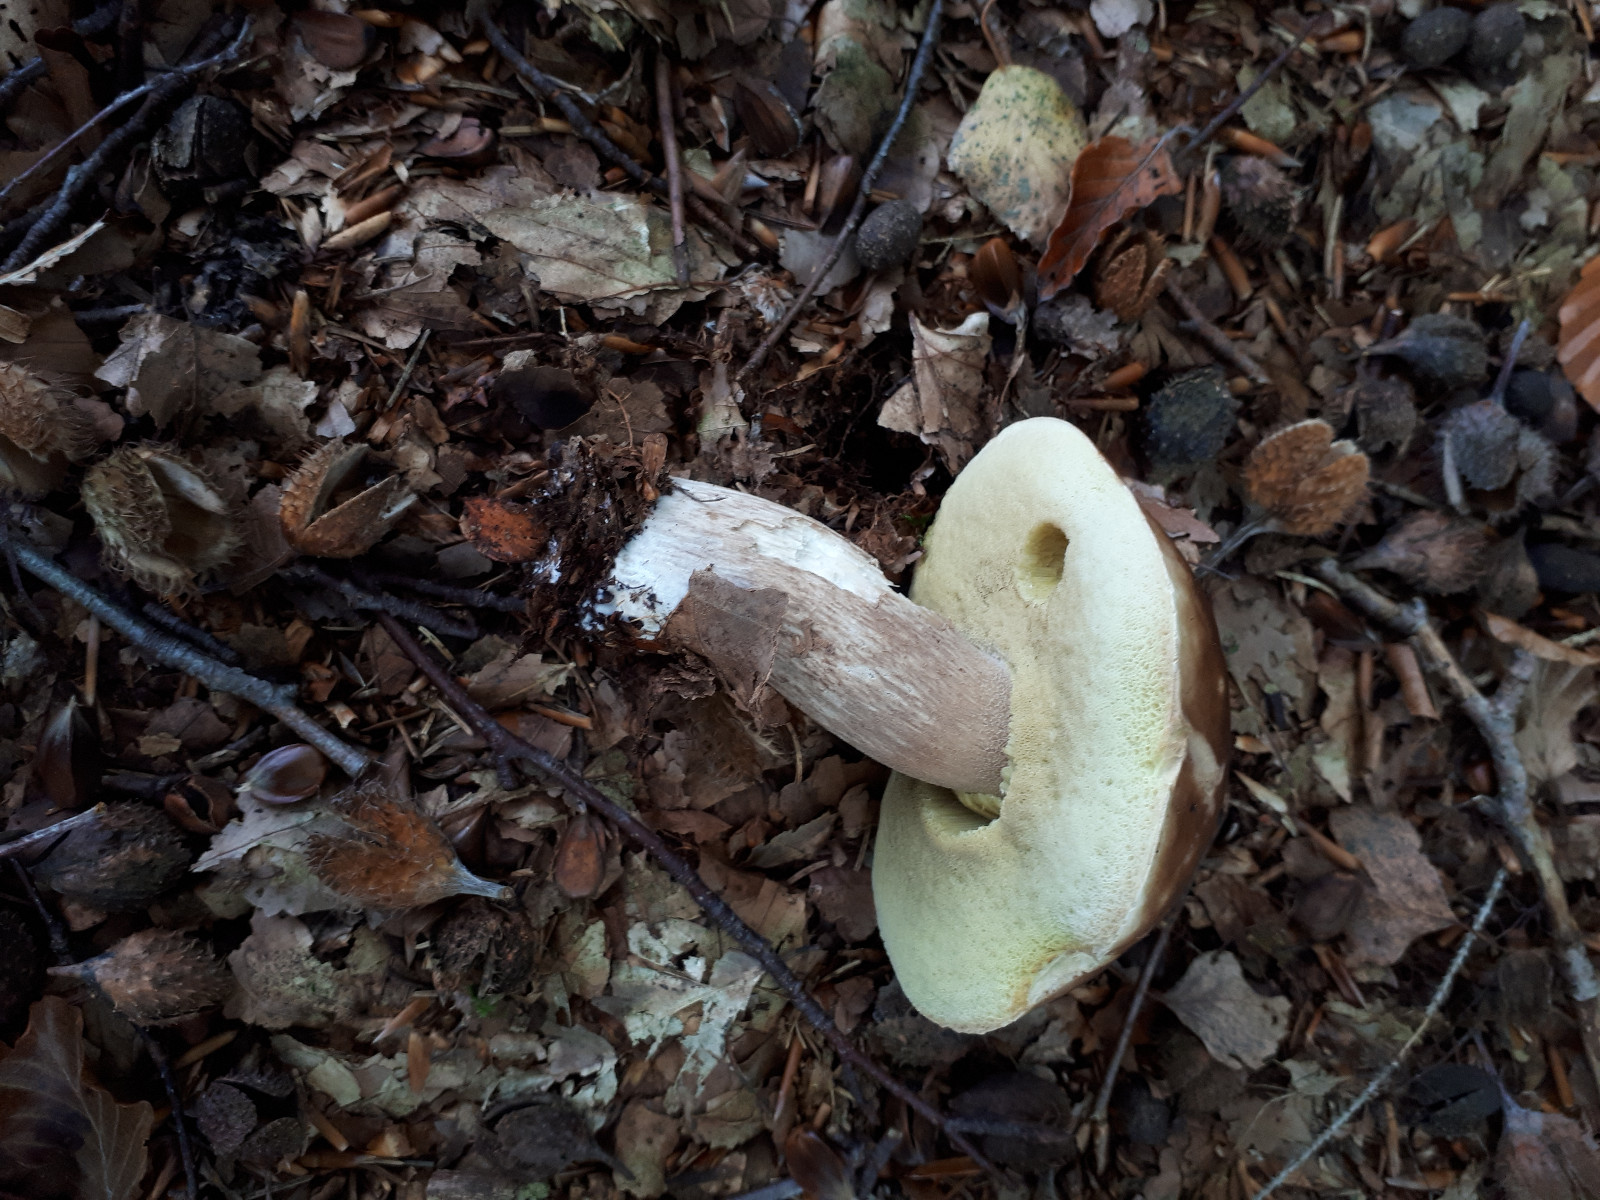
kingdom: Fungi
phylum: Basidiomycota
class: Agaricomycetes
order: Boletales
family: Boletaceae
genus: Boletus
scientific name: Boletus edulis
